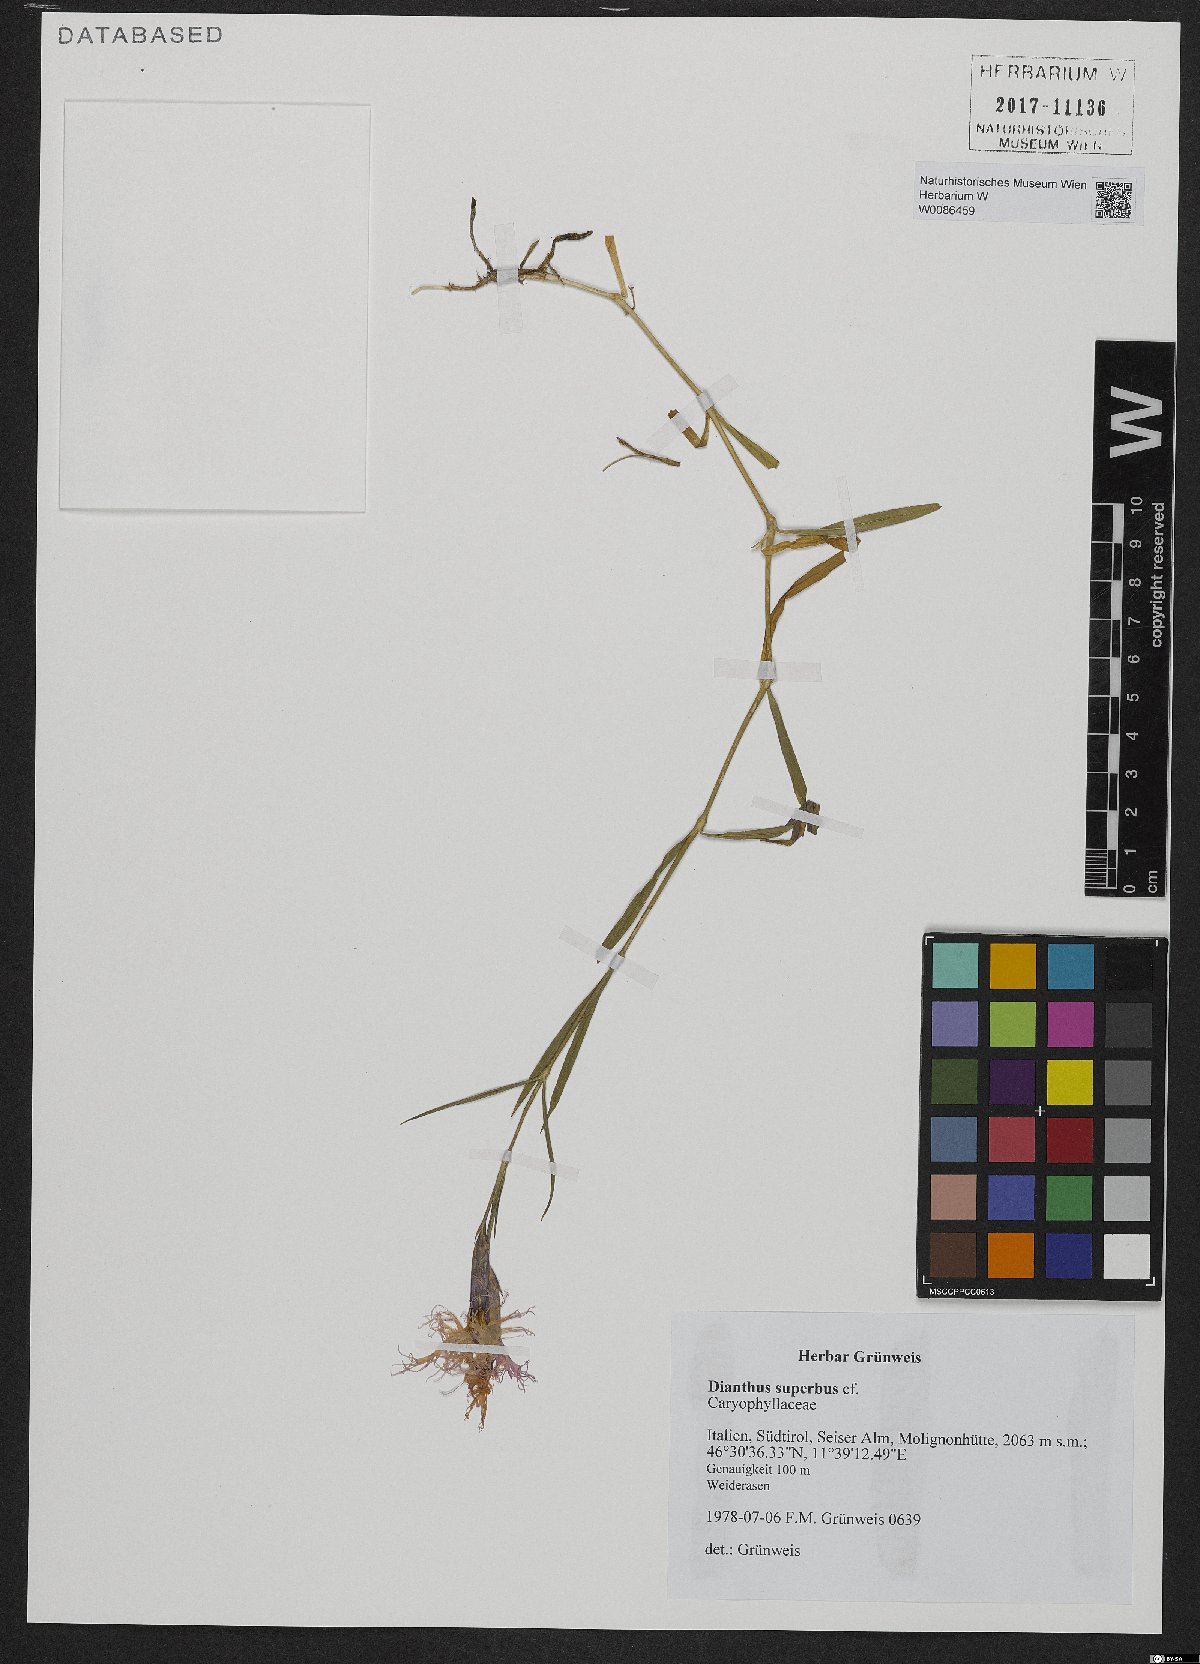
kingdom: Plantae
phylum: Tracheophyta
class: Magnoliopsida
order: Caryophyllales
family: Caryophyllaceae
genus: Dianthus
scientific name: Dianthus superbus
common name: Fringed pink
